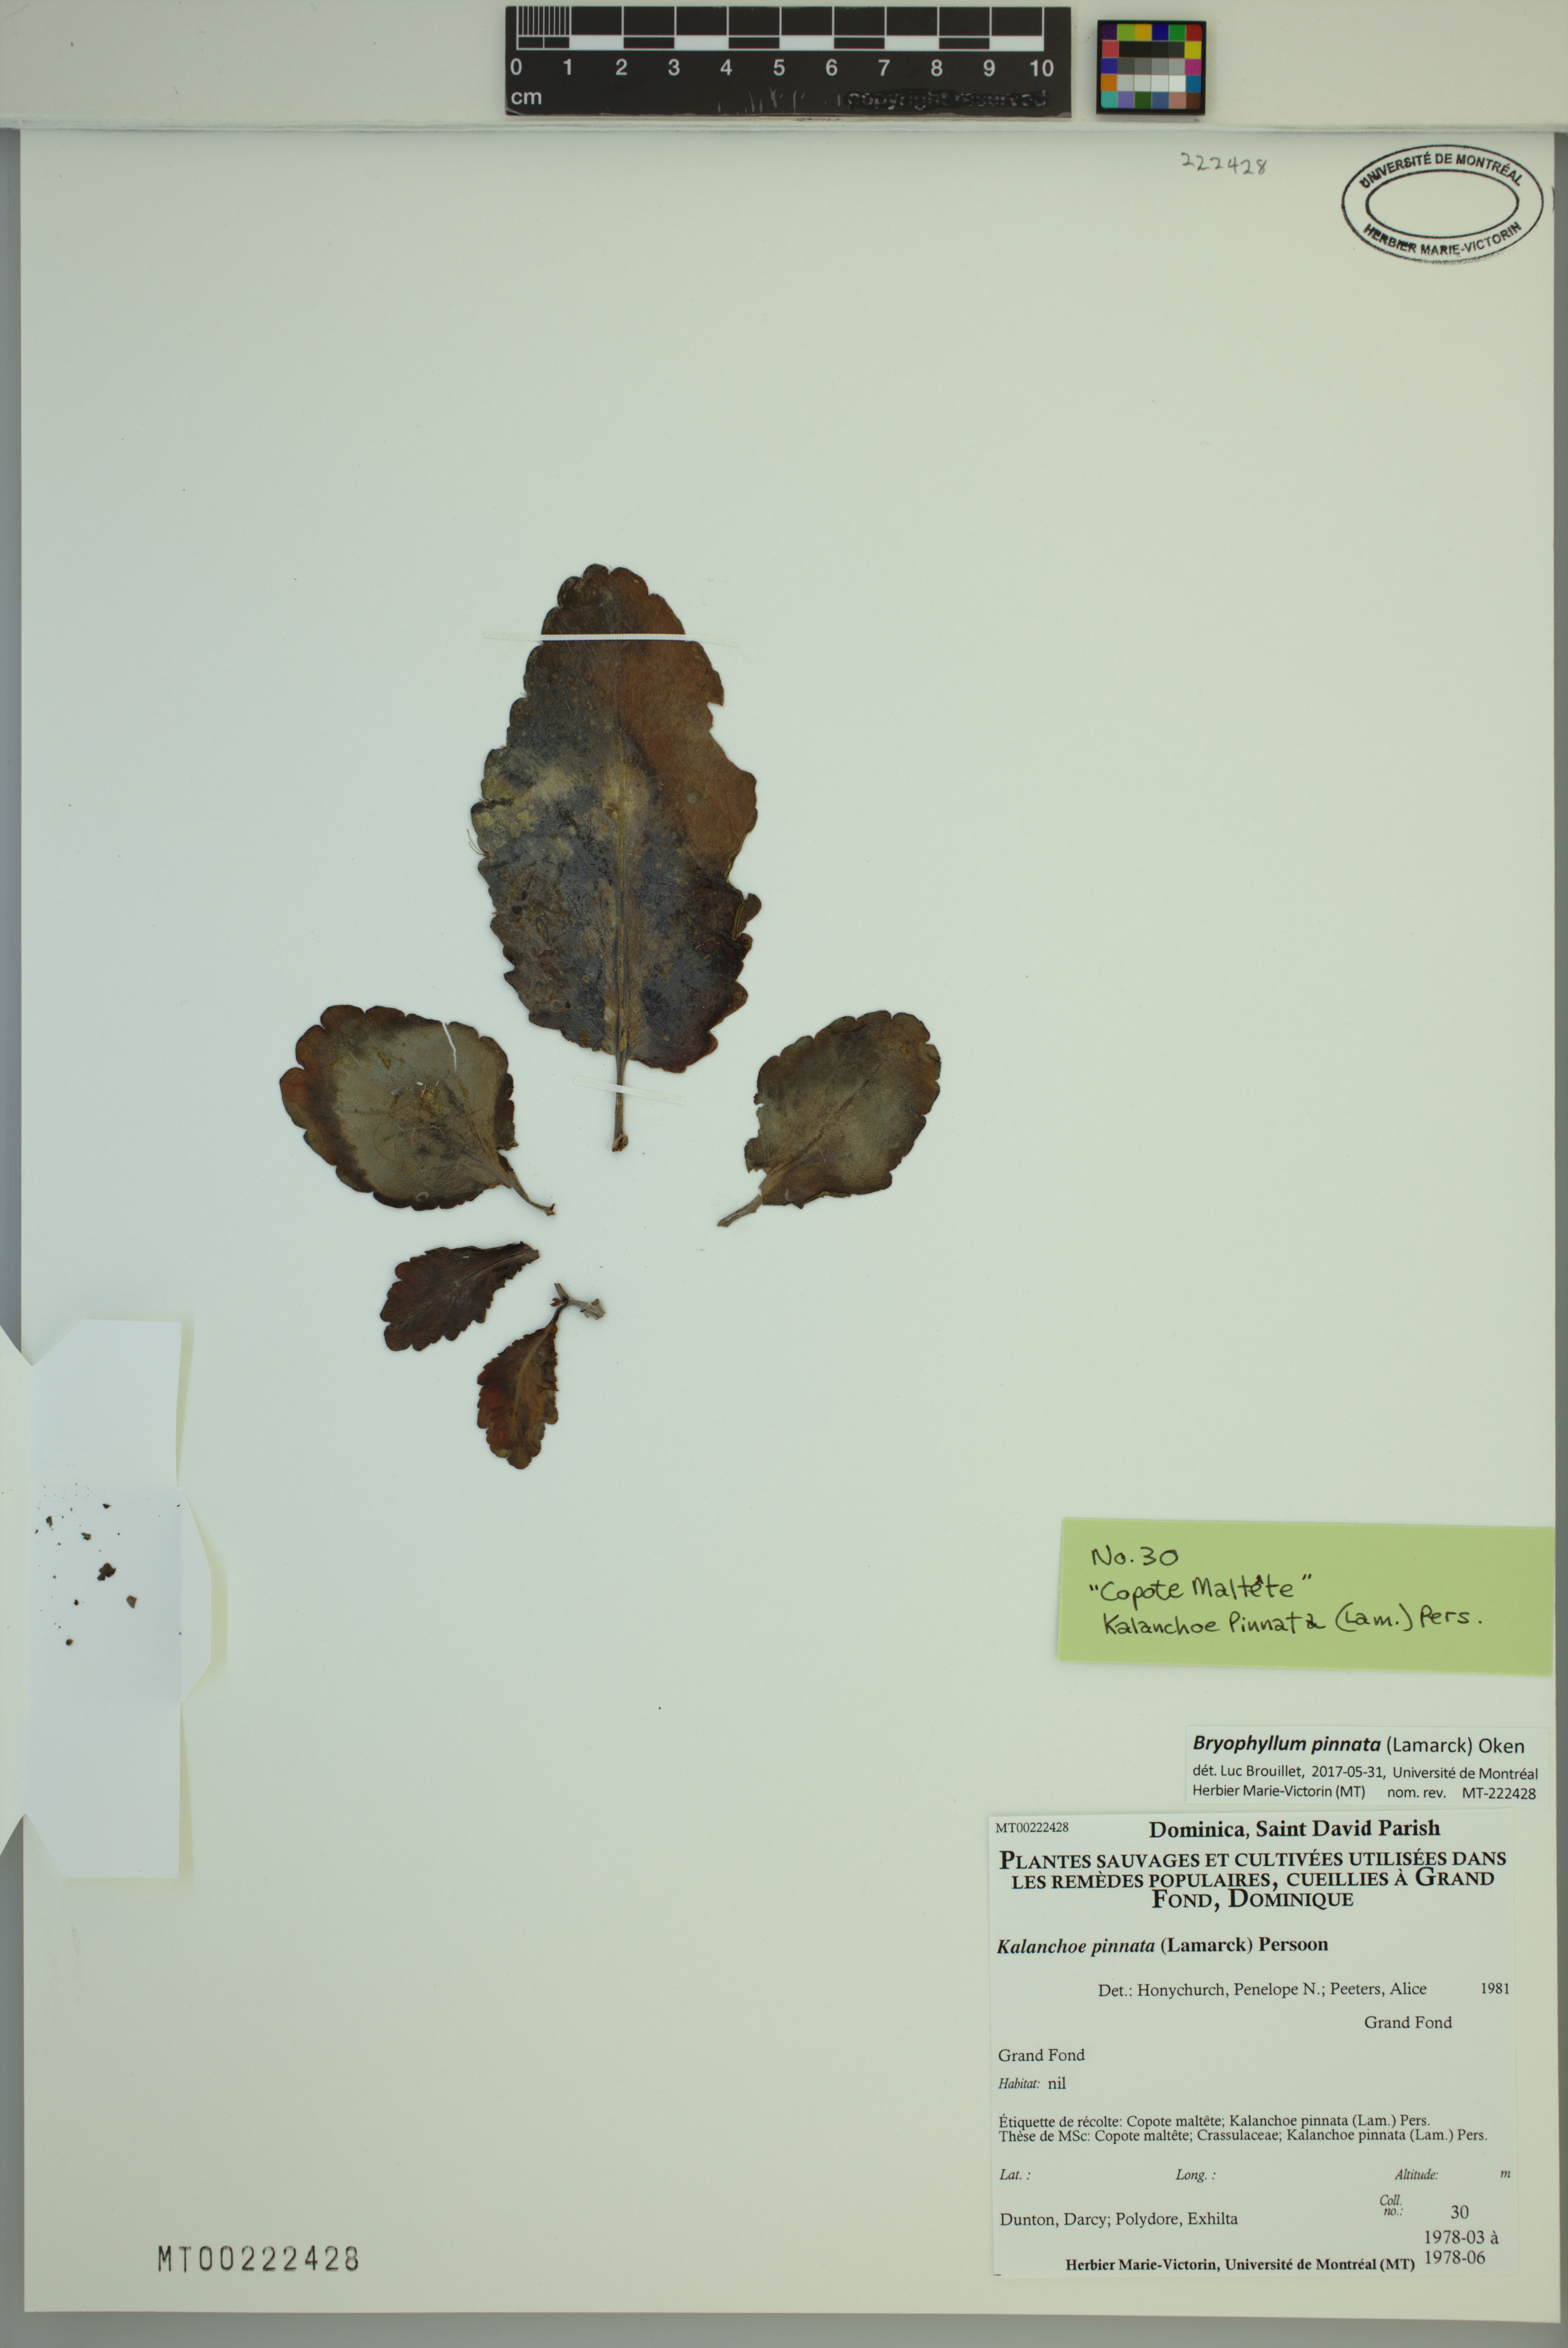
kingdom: Plantae
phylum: Tracheophyta
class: Magnoliopsida
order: Saxifragales
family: Crassulaceae
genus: Kalanchoe
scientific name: Kalanchoe pinnata
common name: Cathedral bells
